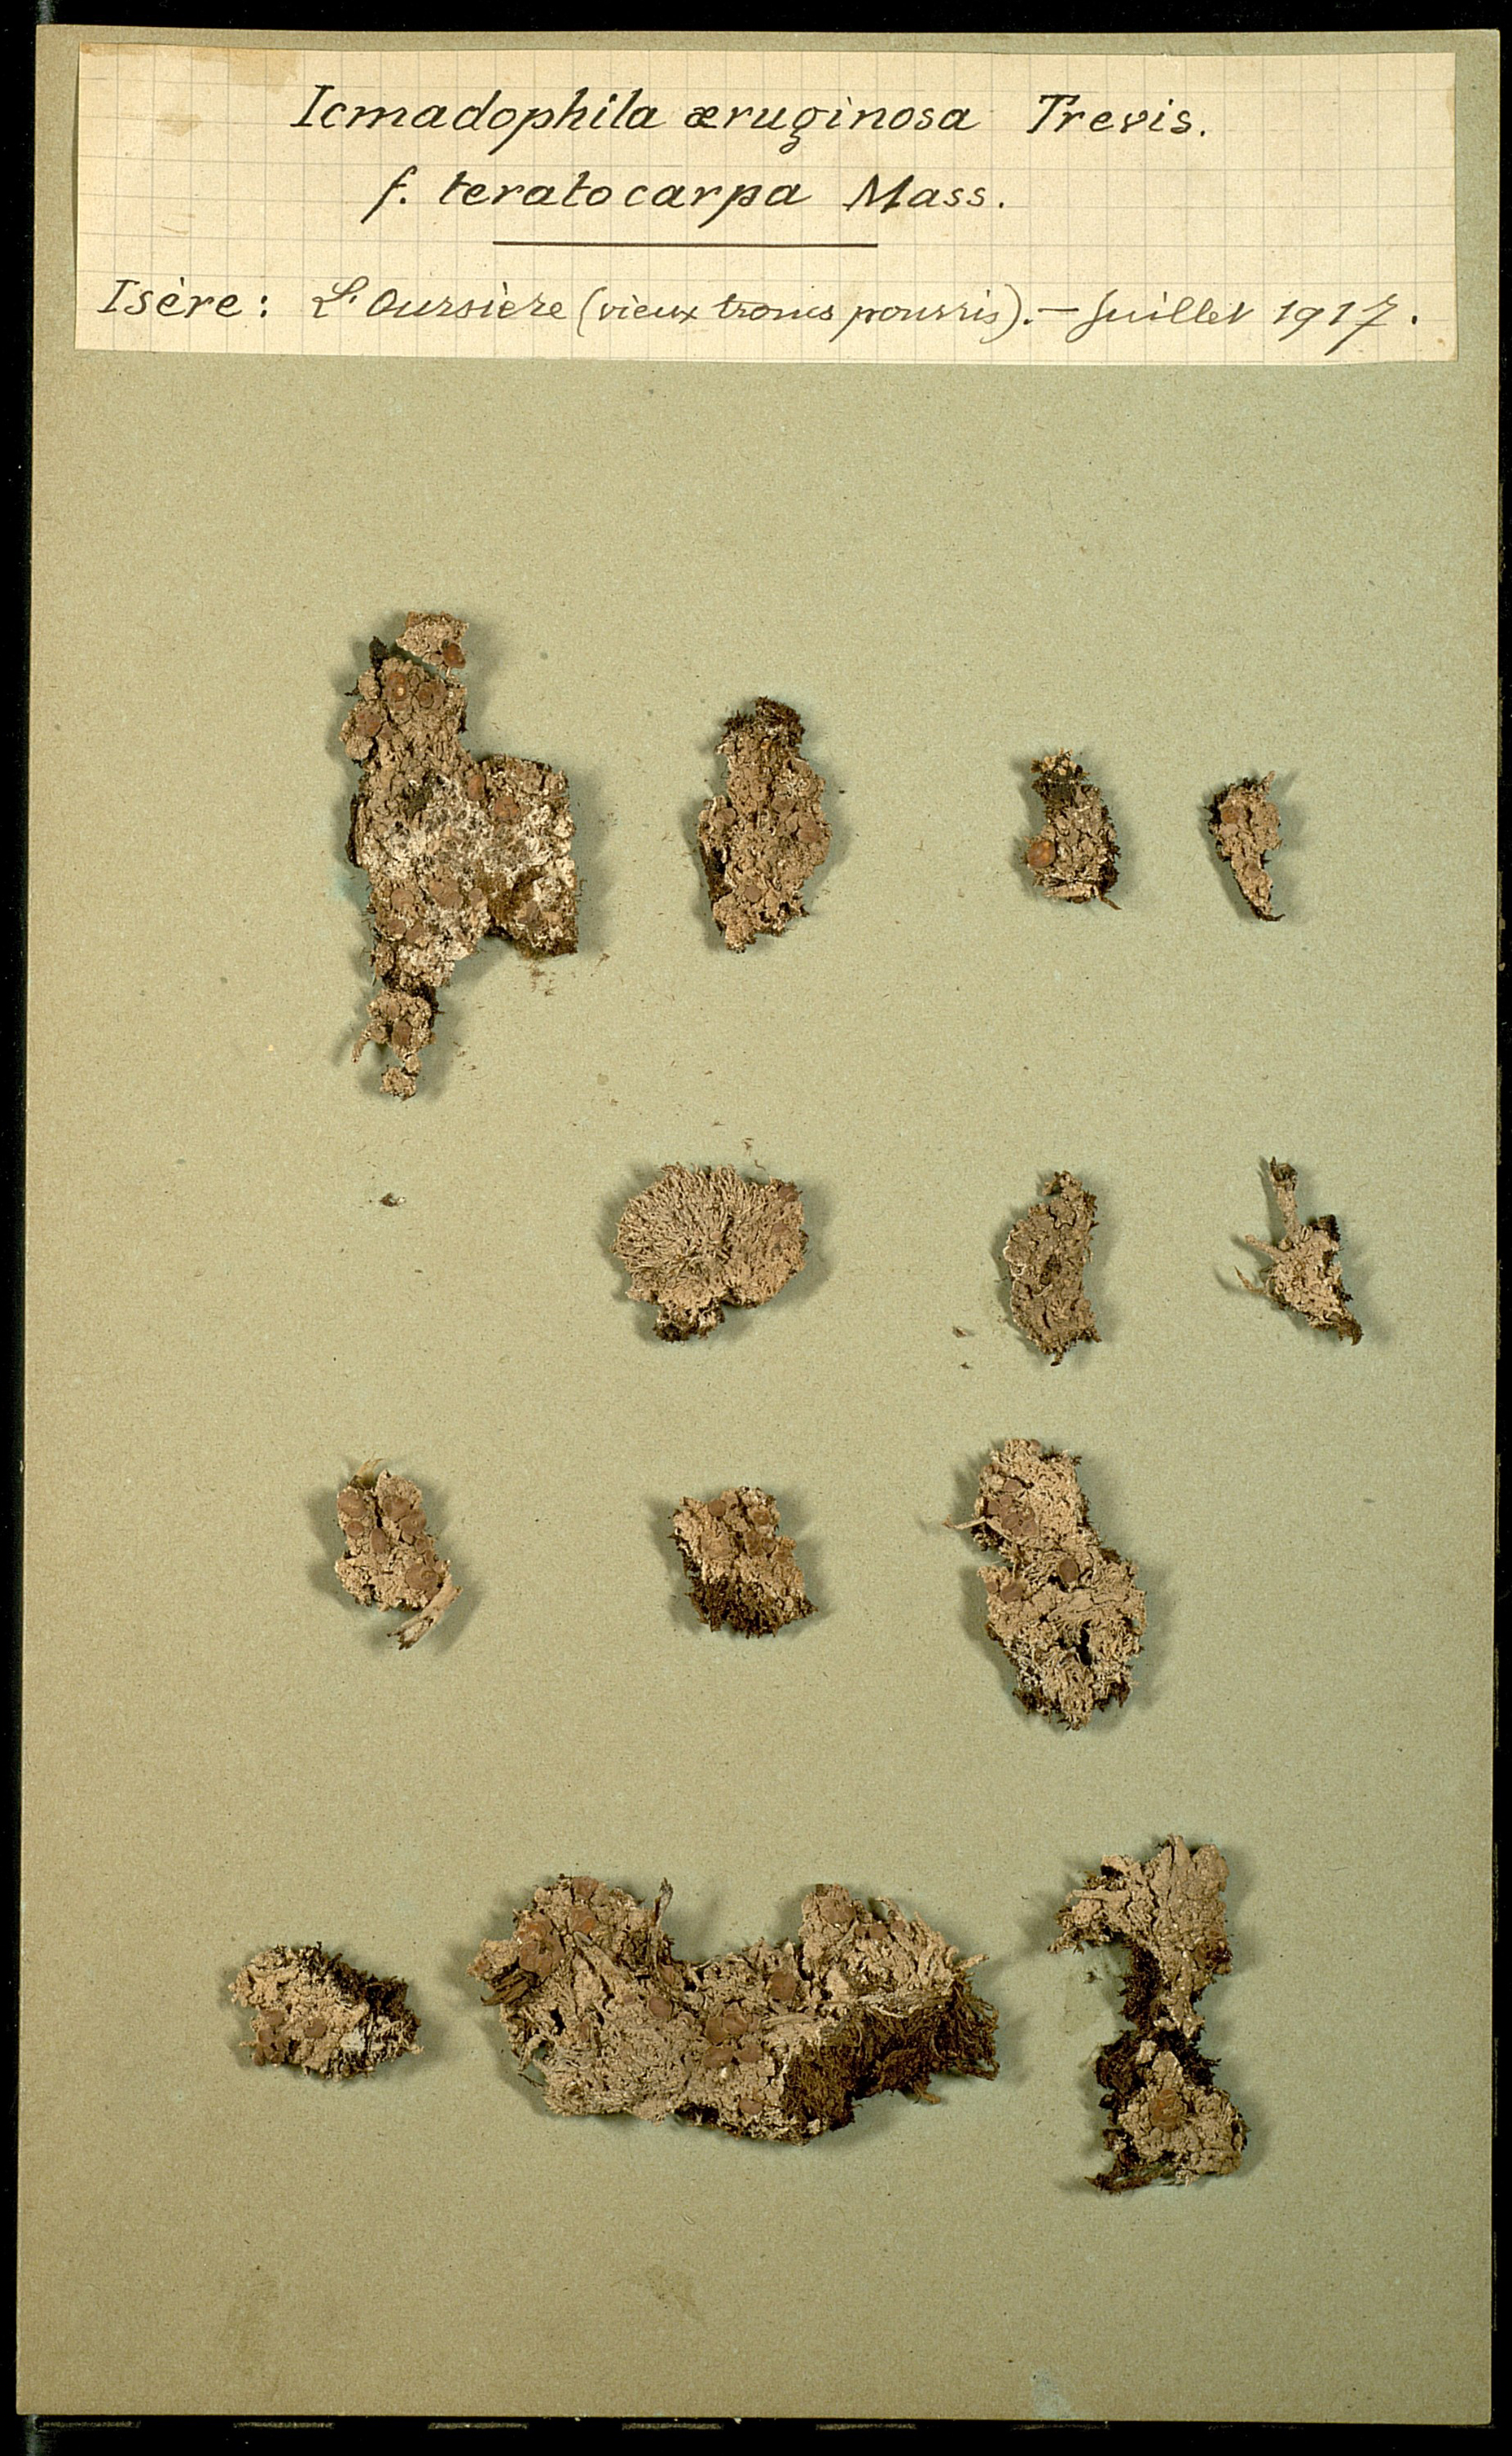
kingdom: Fungi
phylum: Ascomycota
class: Lecanoromycetes
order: Pertusariales
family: Icmadophilaceae
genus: Icmadophila
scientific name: Icmadophila ericetorum
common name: Candy lichen
